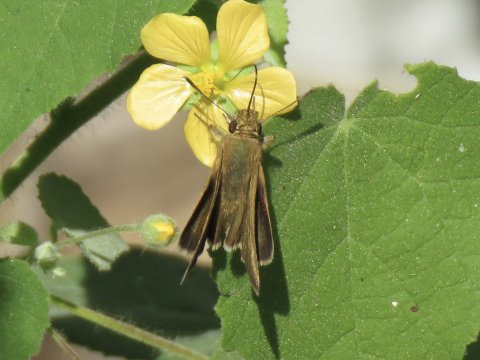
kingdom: Animalia
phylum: Arthropoda
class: Insecta
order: Lepidoptera
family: Hesperiidae
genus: Nastra
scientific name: Nastra julia
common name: Julia's Skipper
